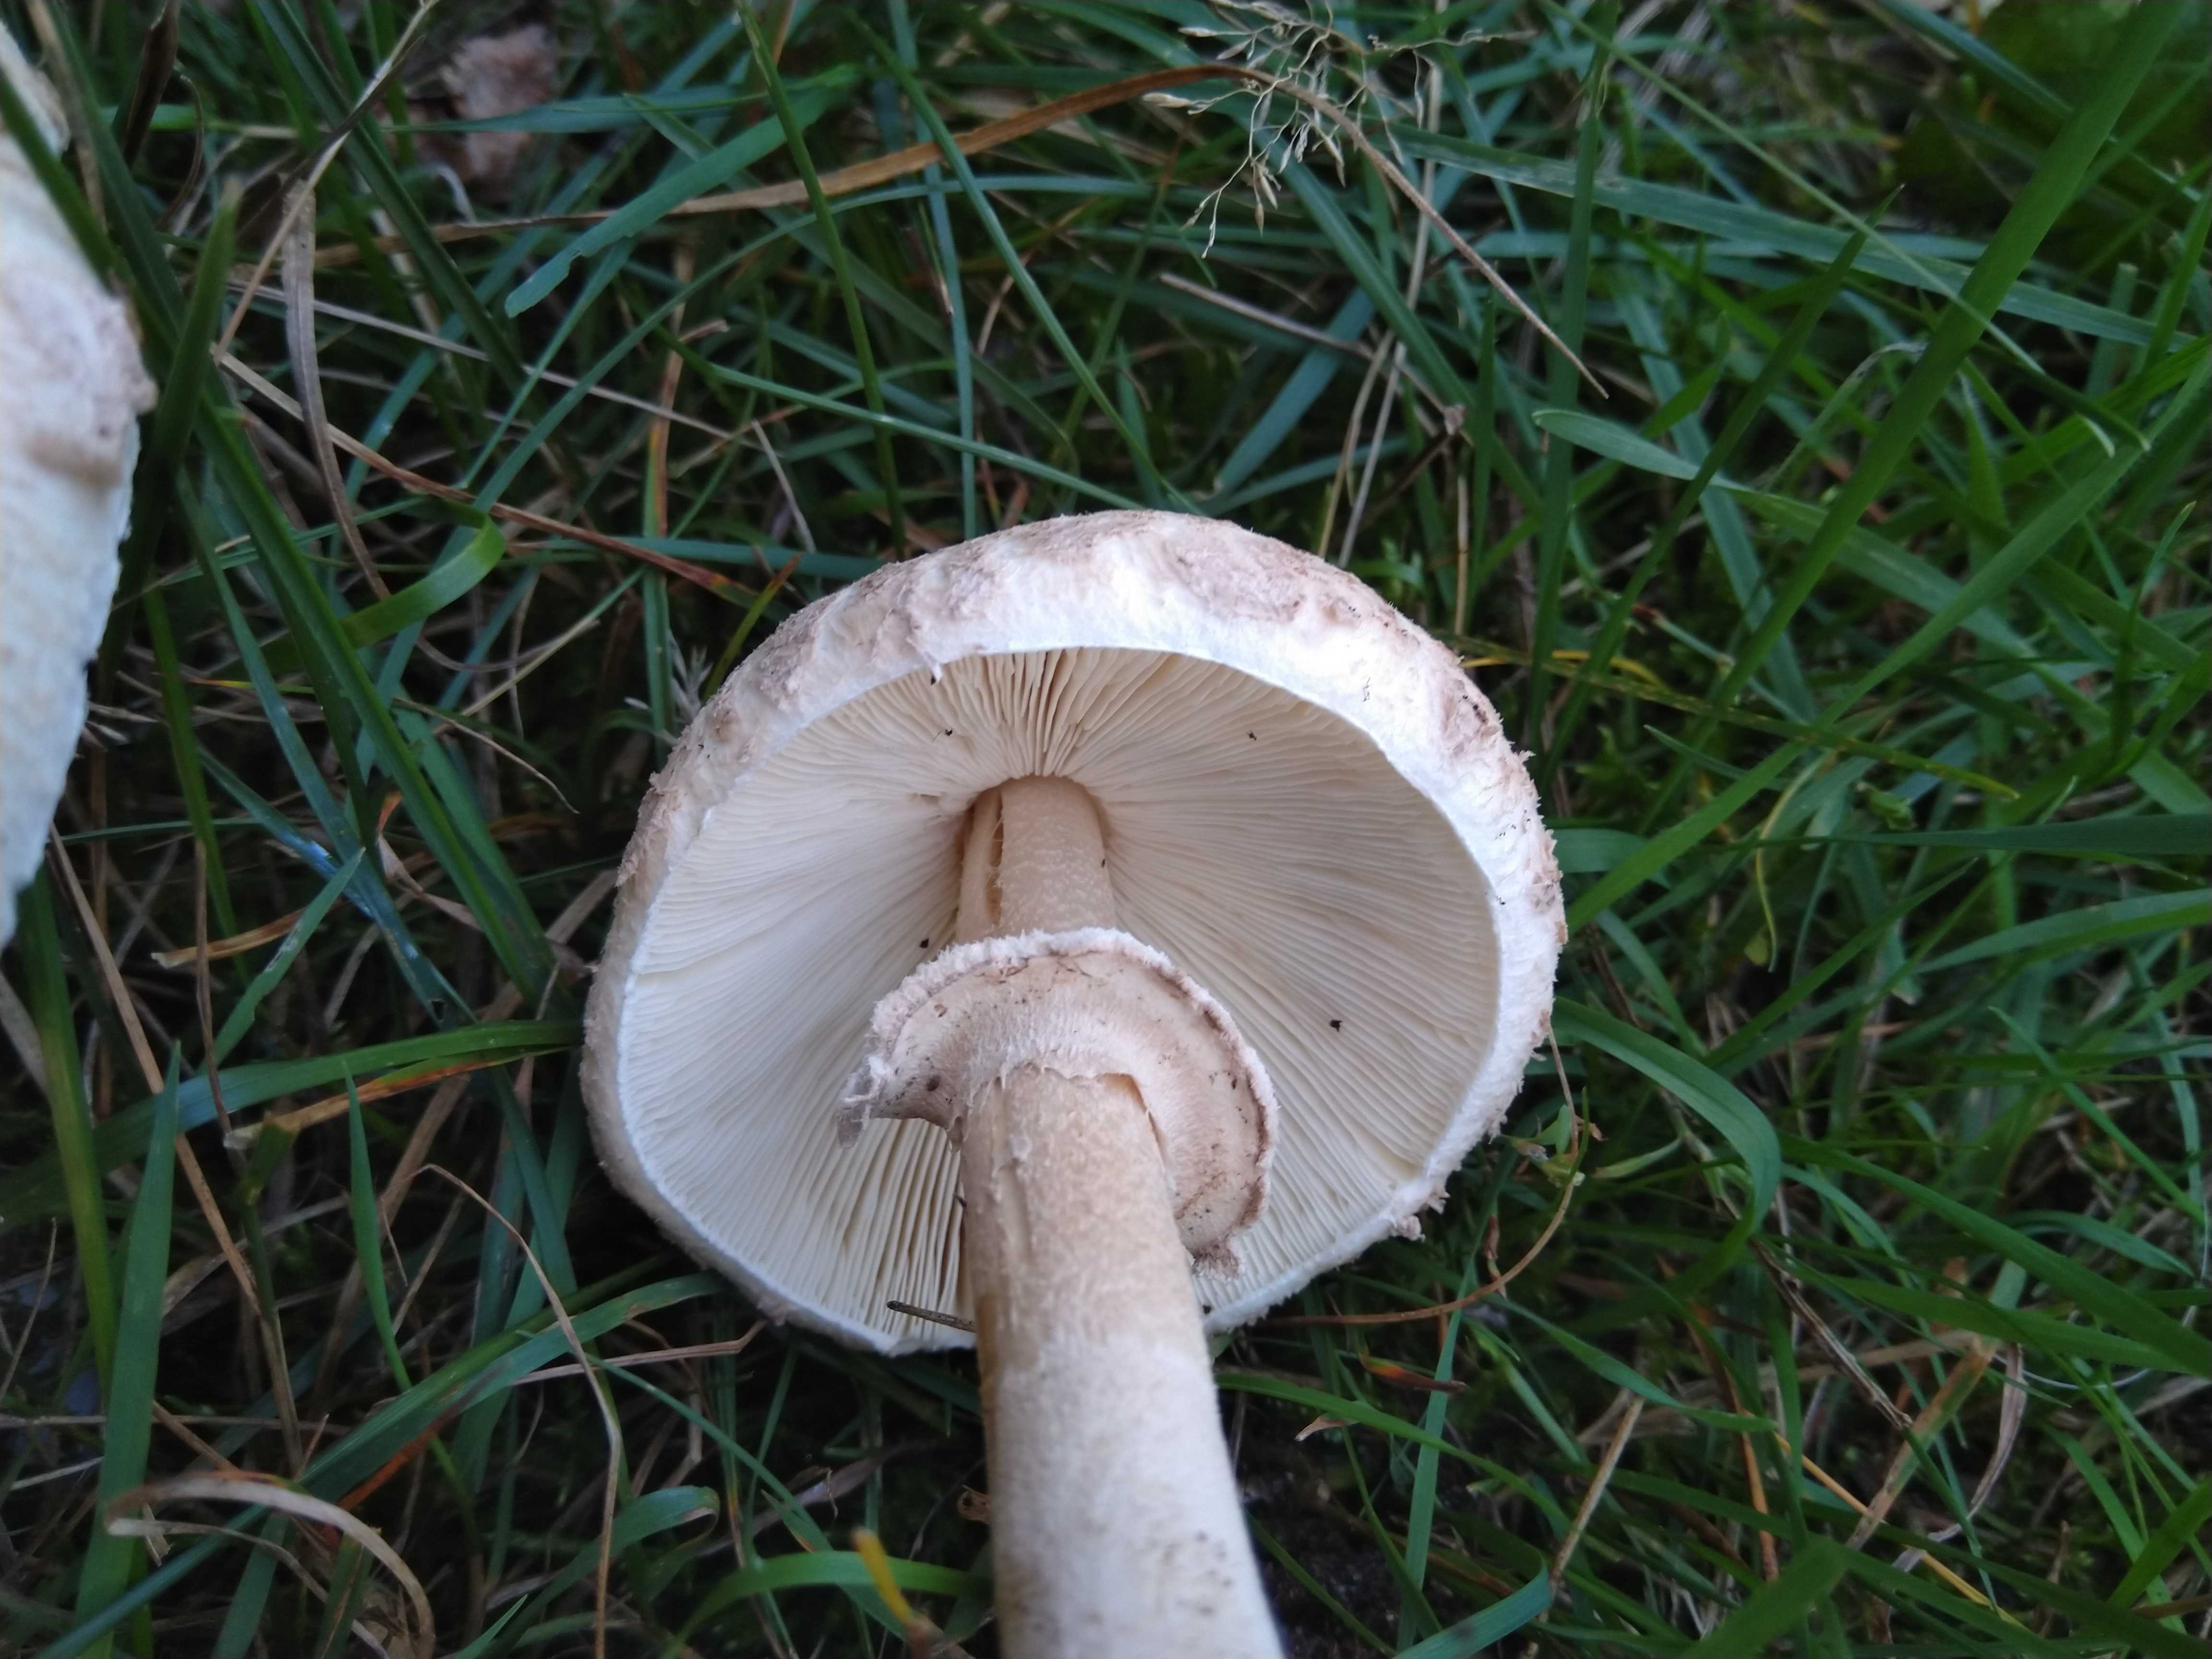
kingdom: Fungi
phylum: Basidiomycota
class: Agaricomycetes
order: Agaricales
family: Agaricaceae
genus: Macrolepiota
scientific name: Macrolepiota excoriata
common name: mark-kæmpeparasolhat
